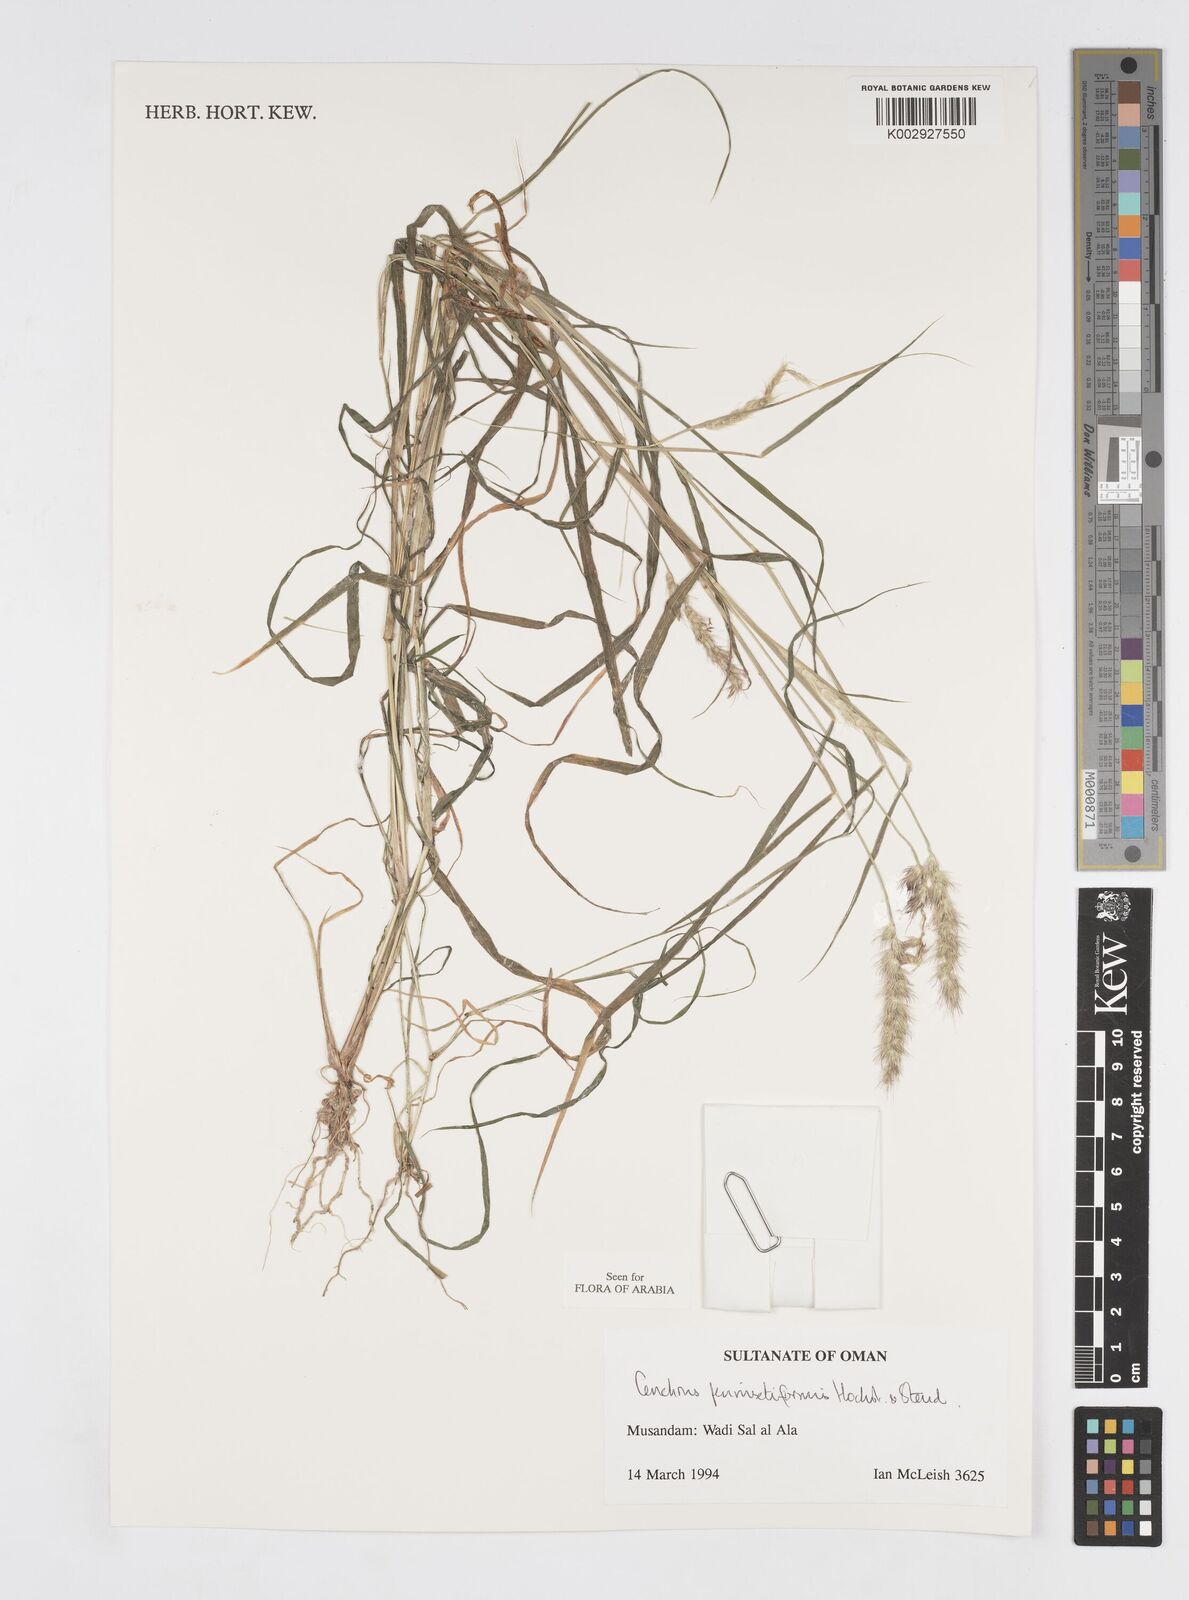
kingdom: Plantae
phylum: Tracheophyta
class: Liliopsida
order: Poales
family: Poaceae
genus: Cenchrus
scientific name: Cenchrus pennisetiformis
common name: Cloncurry
